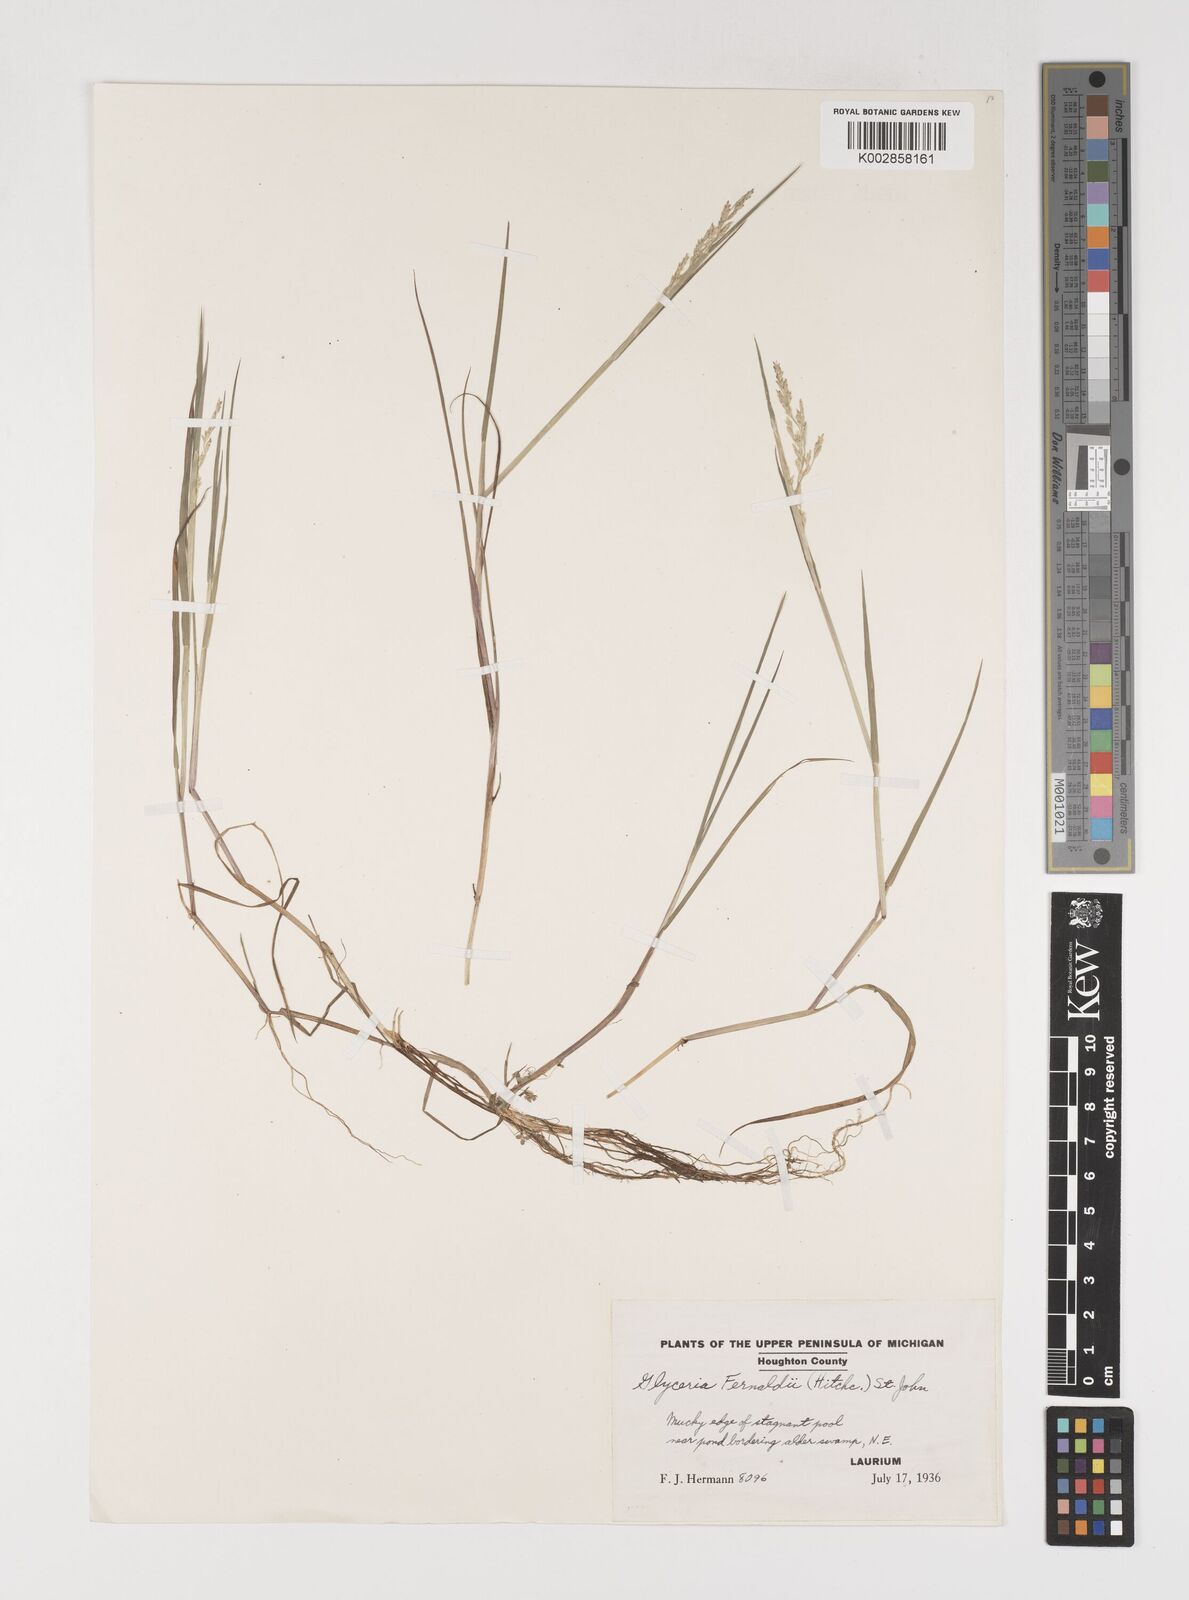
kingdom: Plantae
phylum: Tracheophyta
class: Liliopsida
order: Poales
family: Poaceae
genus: Torreyochloa
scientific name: Torreyochloa pallida
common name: Pale false mannagrass
